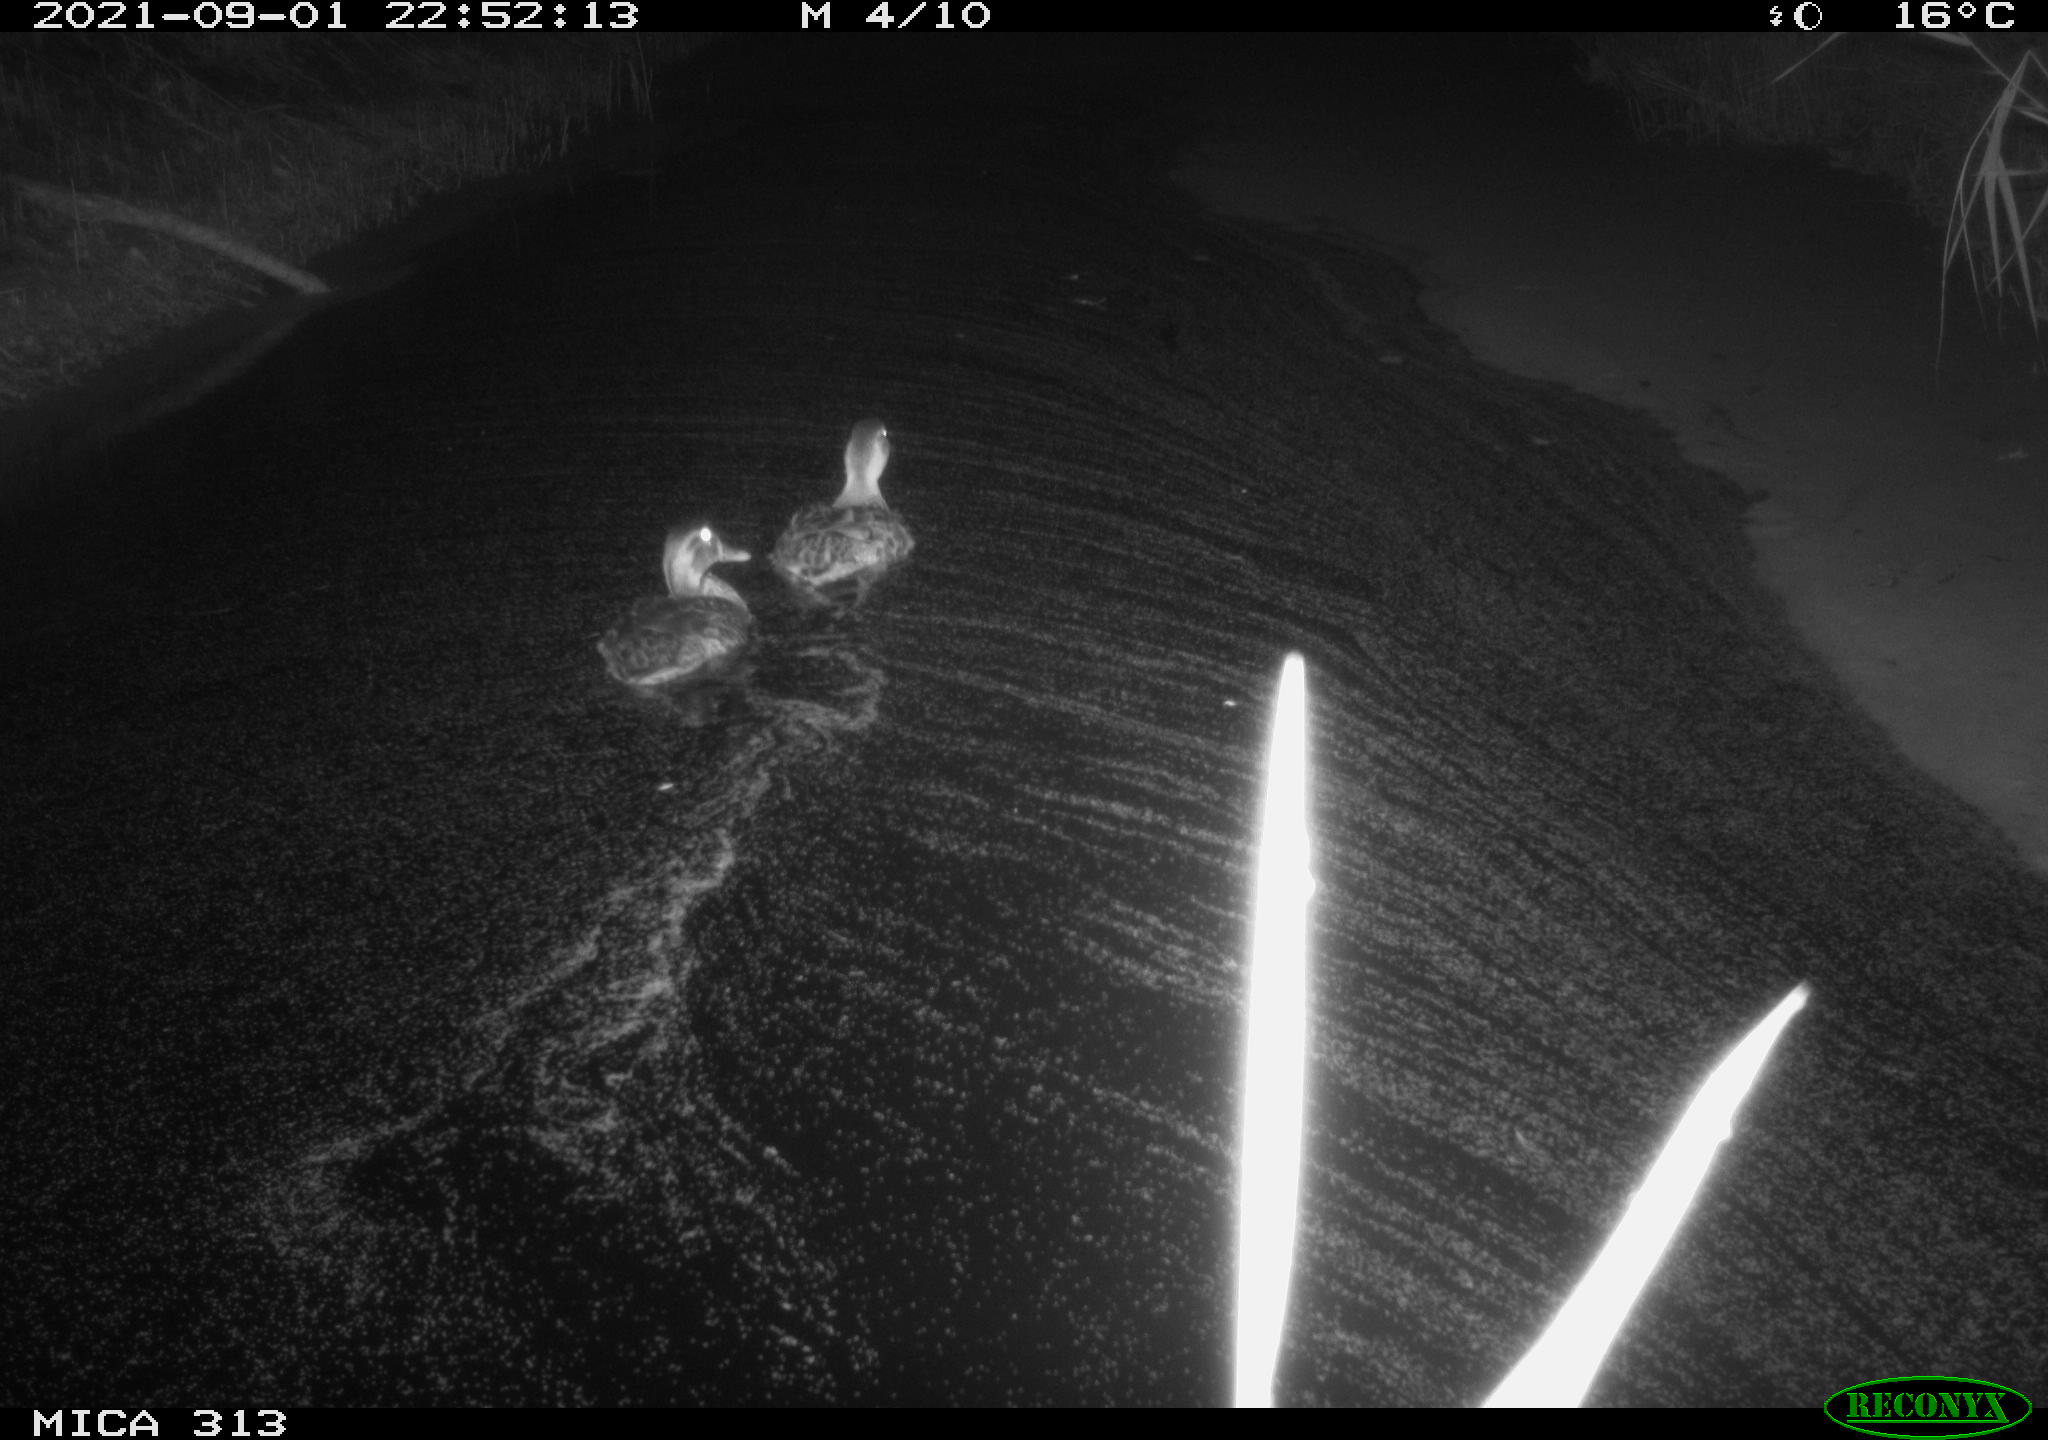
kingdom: Animalia
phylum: Chordata
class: Aves
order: Anseriformes
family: Anatidae
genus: Anas
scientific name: Anas platyrhynchos
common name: Mallard
